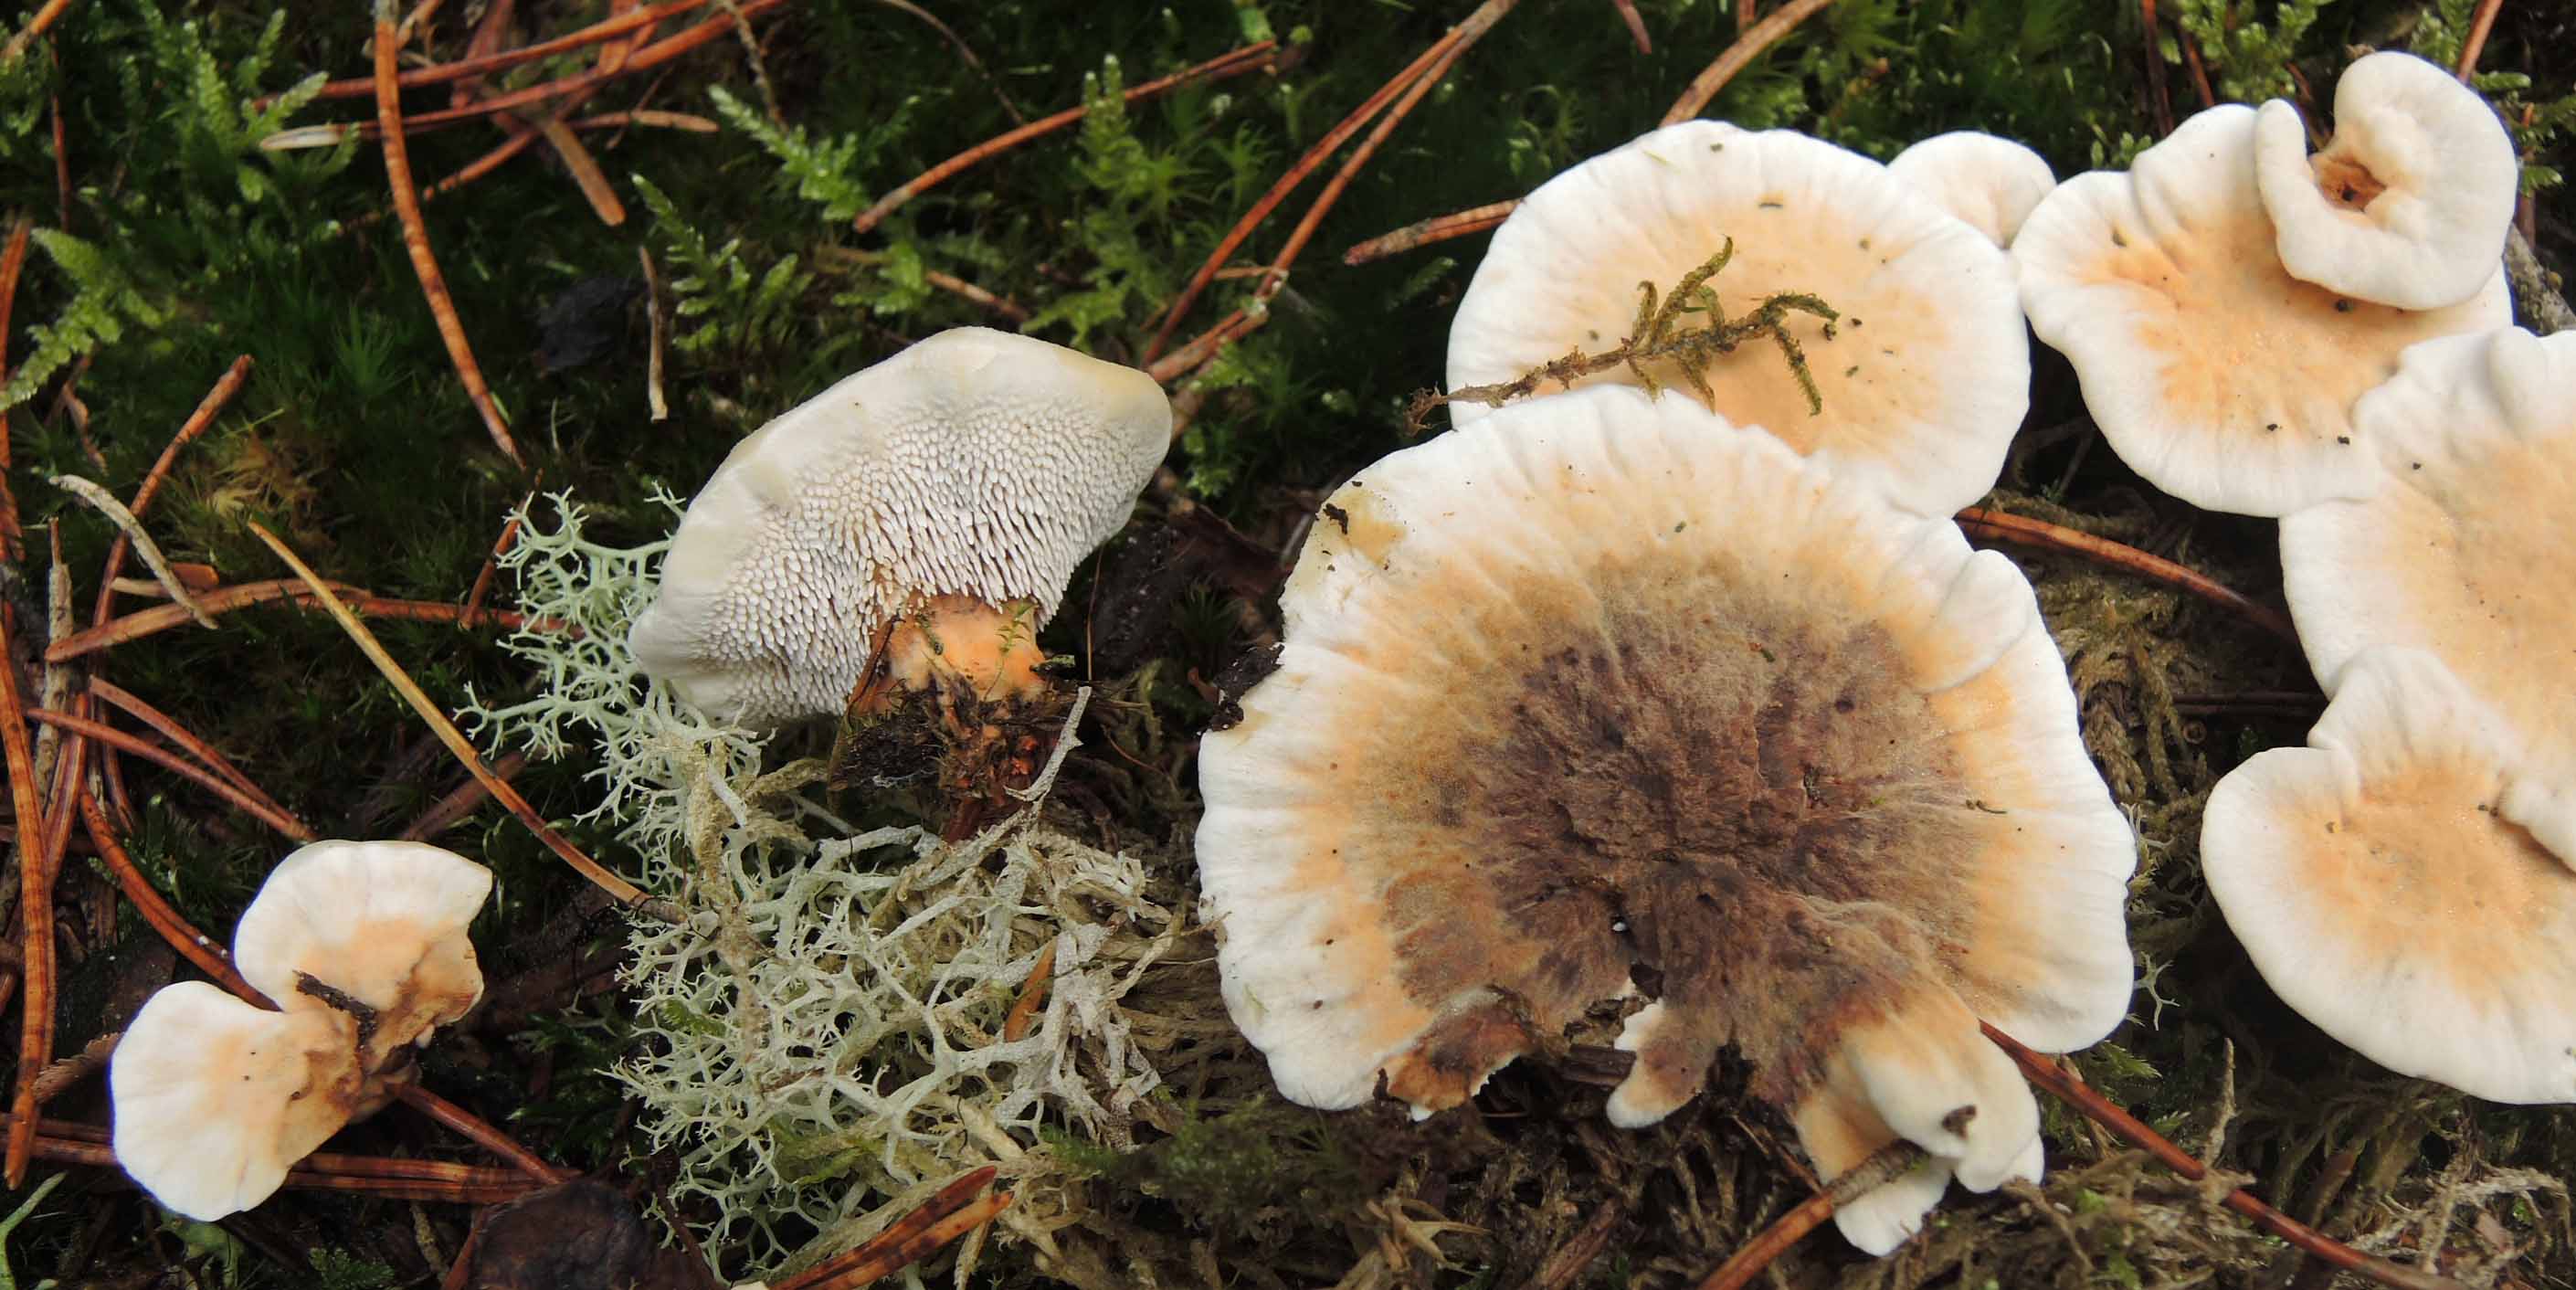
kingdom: Fungi
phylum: Basidiomycota
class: Agaricomycetes
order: Thelephorales
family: Bankeraceae
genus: Hydnellum
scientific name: Hydnellum aurantiacum
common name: orange korkpigsvamp
